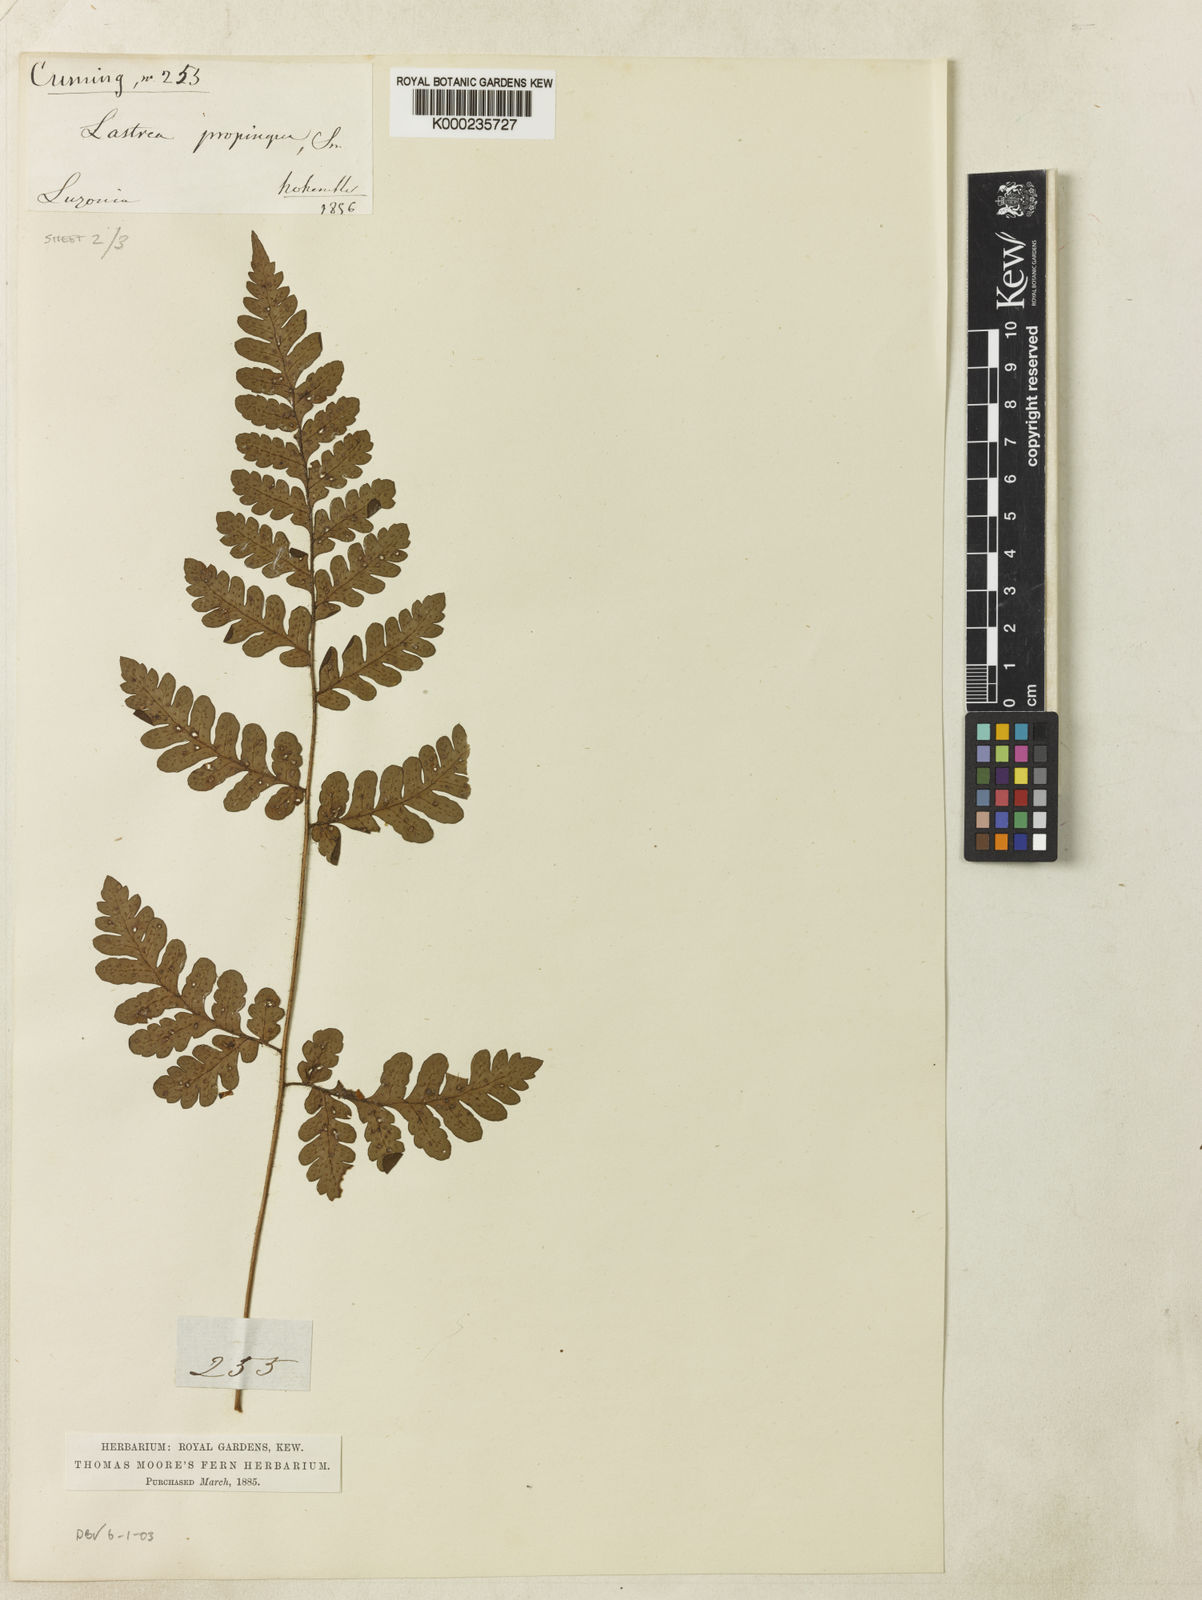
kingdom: Plantae
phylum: Tracheophyta
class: Polypodiopsida
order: Polypodiales
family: Dryopteridaceae
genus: Ctenitis
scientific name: Ctenitis propinqua
